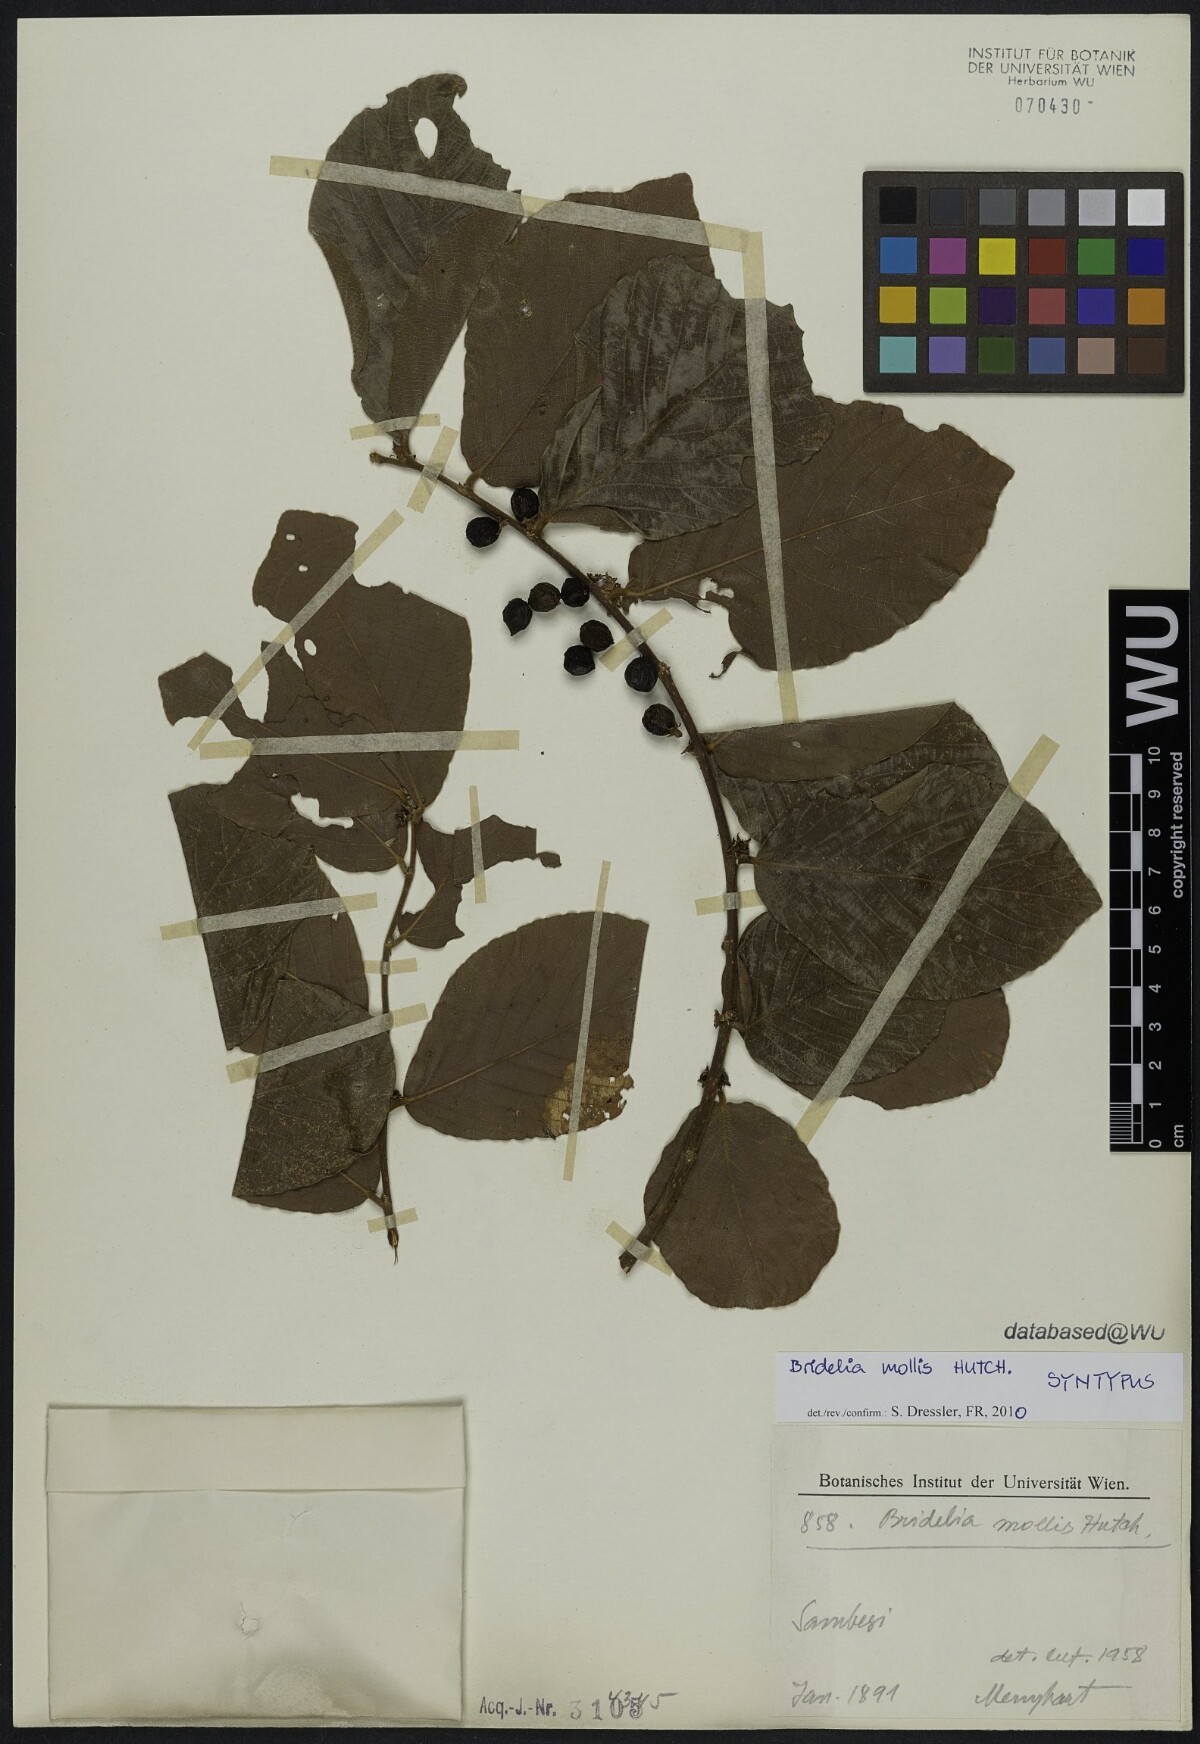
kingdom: Plantae
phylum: Tracheophyta
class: Magnoliopsida
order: Malpighiales
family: Phyllanthaceae
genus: Bridelia
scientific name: Bridelia mollis
